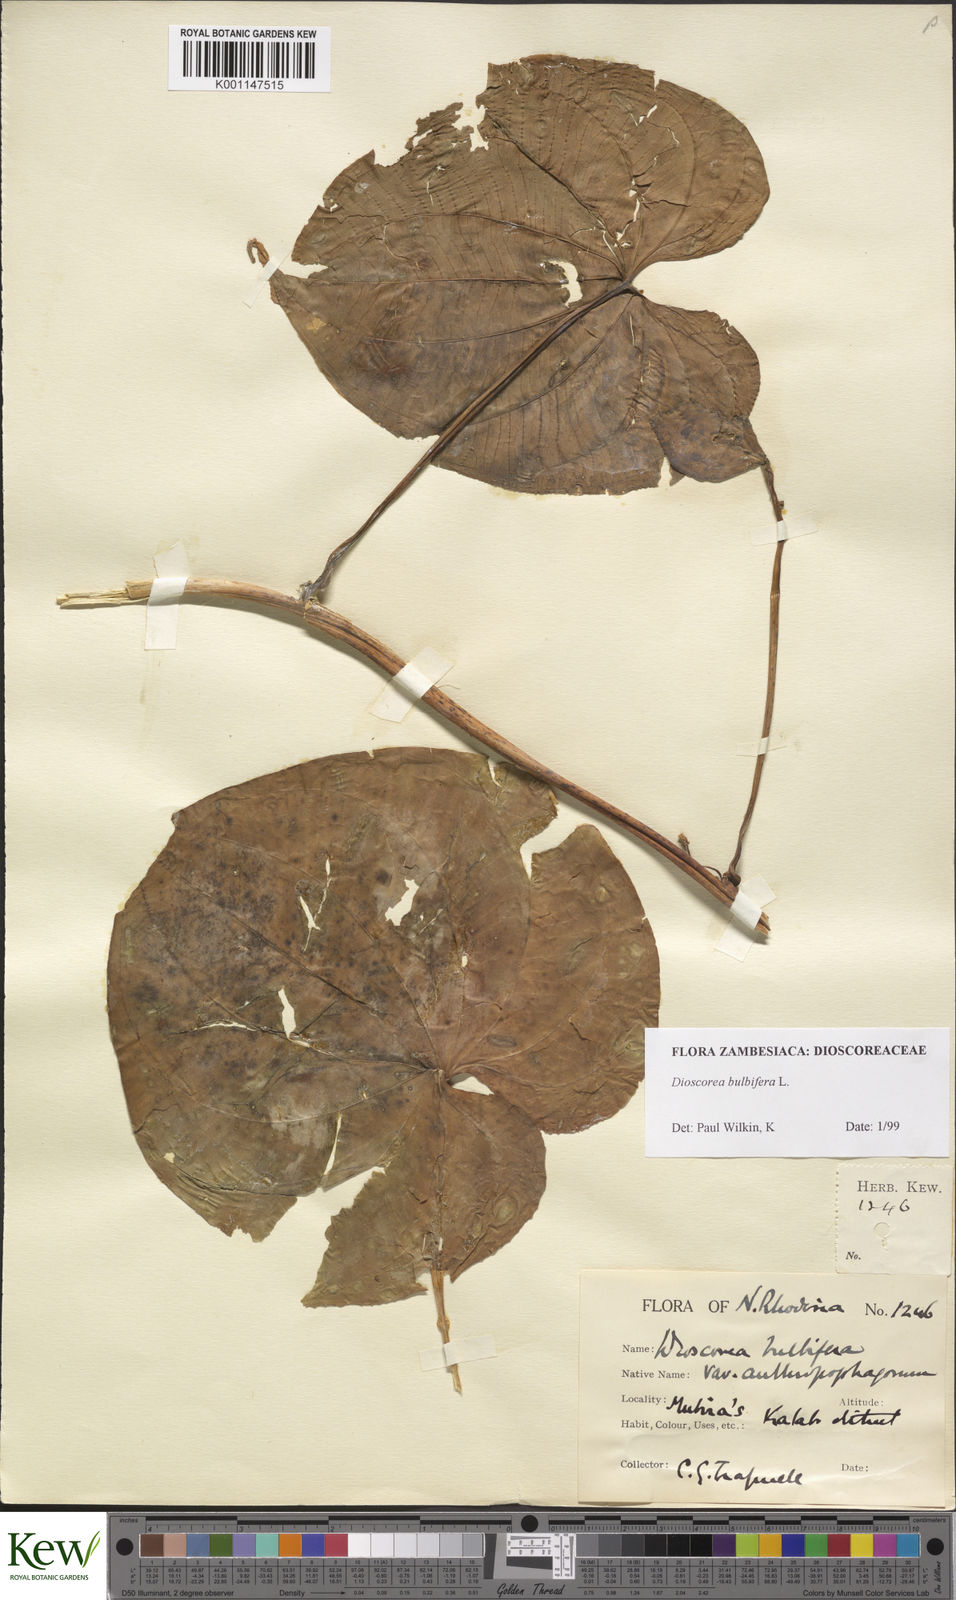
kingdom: Plantae
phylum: Tracheophyta
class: Liliopsida
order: Dioscoreales
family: Dioscoreaceae
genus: Dioscorea
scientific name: Dioscorea bulbifera
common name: Air yam
